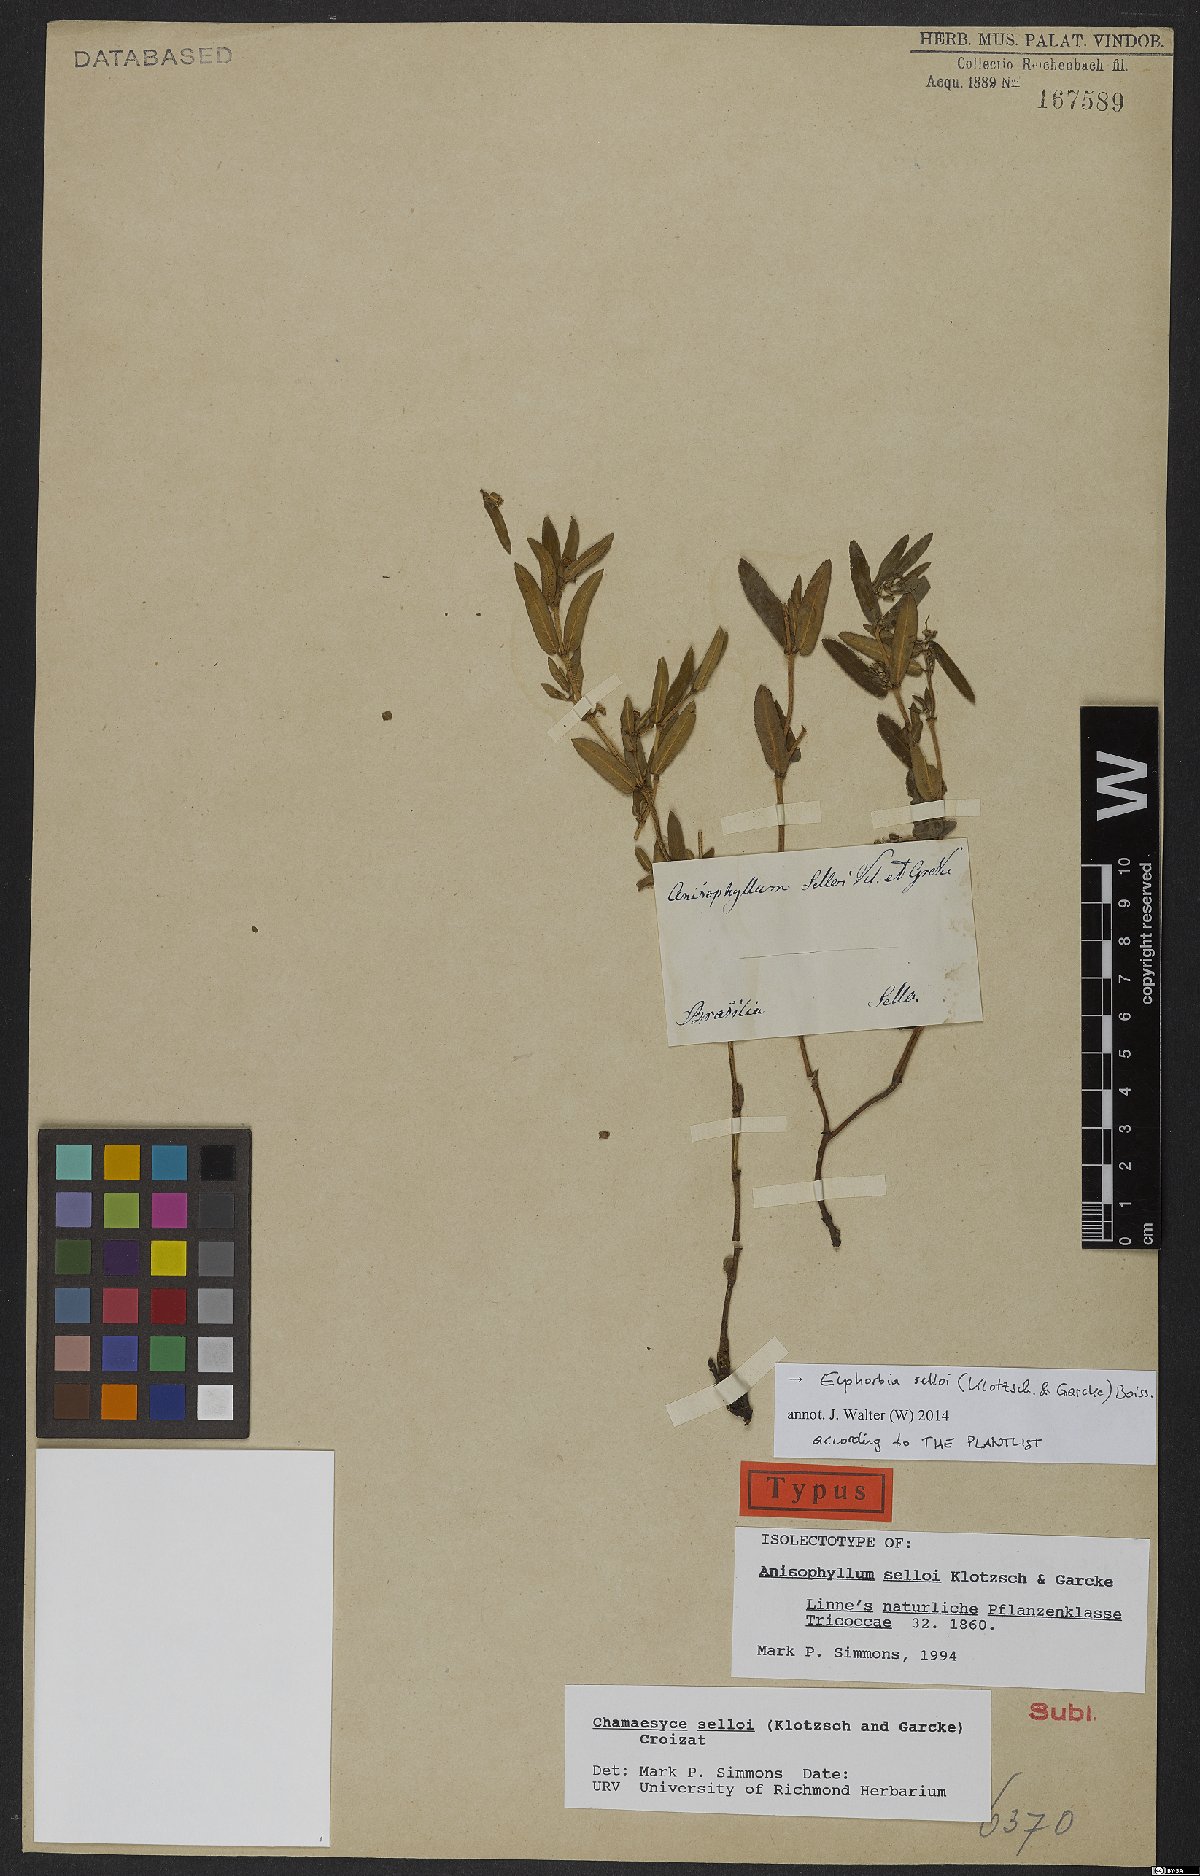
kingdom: Plantae
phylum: Tracheophyta
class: Magnoliopsida
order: Malpighiales
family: Euphorbiaceae
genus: Euphorbia
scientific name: Euphorbia selloi
